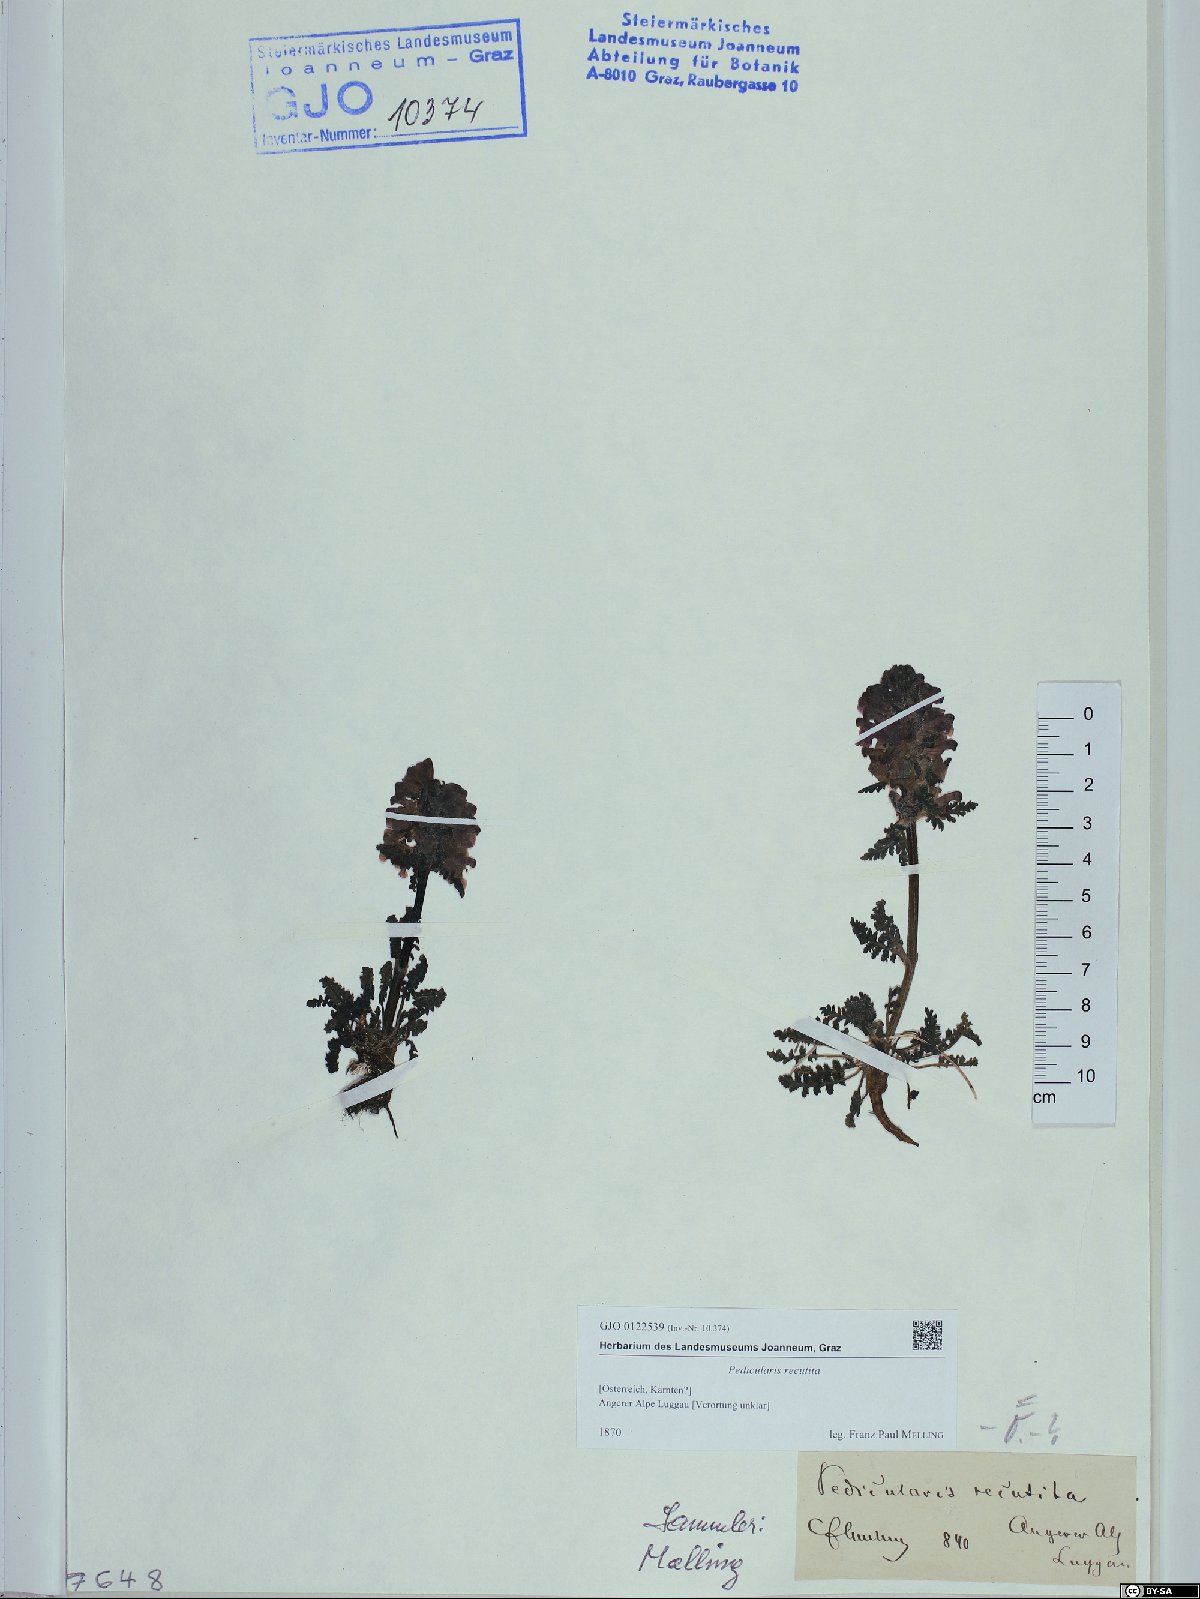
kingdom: Plantae
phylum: Tracheophyta
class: Magnoliopsida
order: Lamiales
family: Orobanchaceae
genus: Pedicularis
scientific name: Pedicularis recutita
